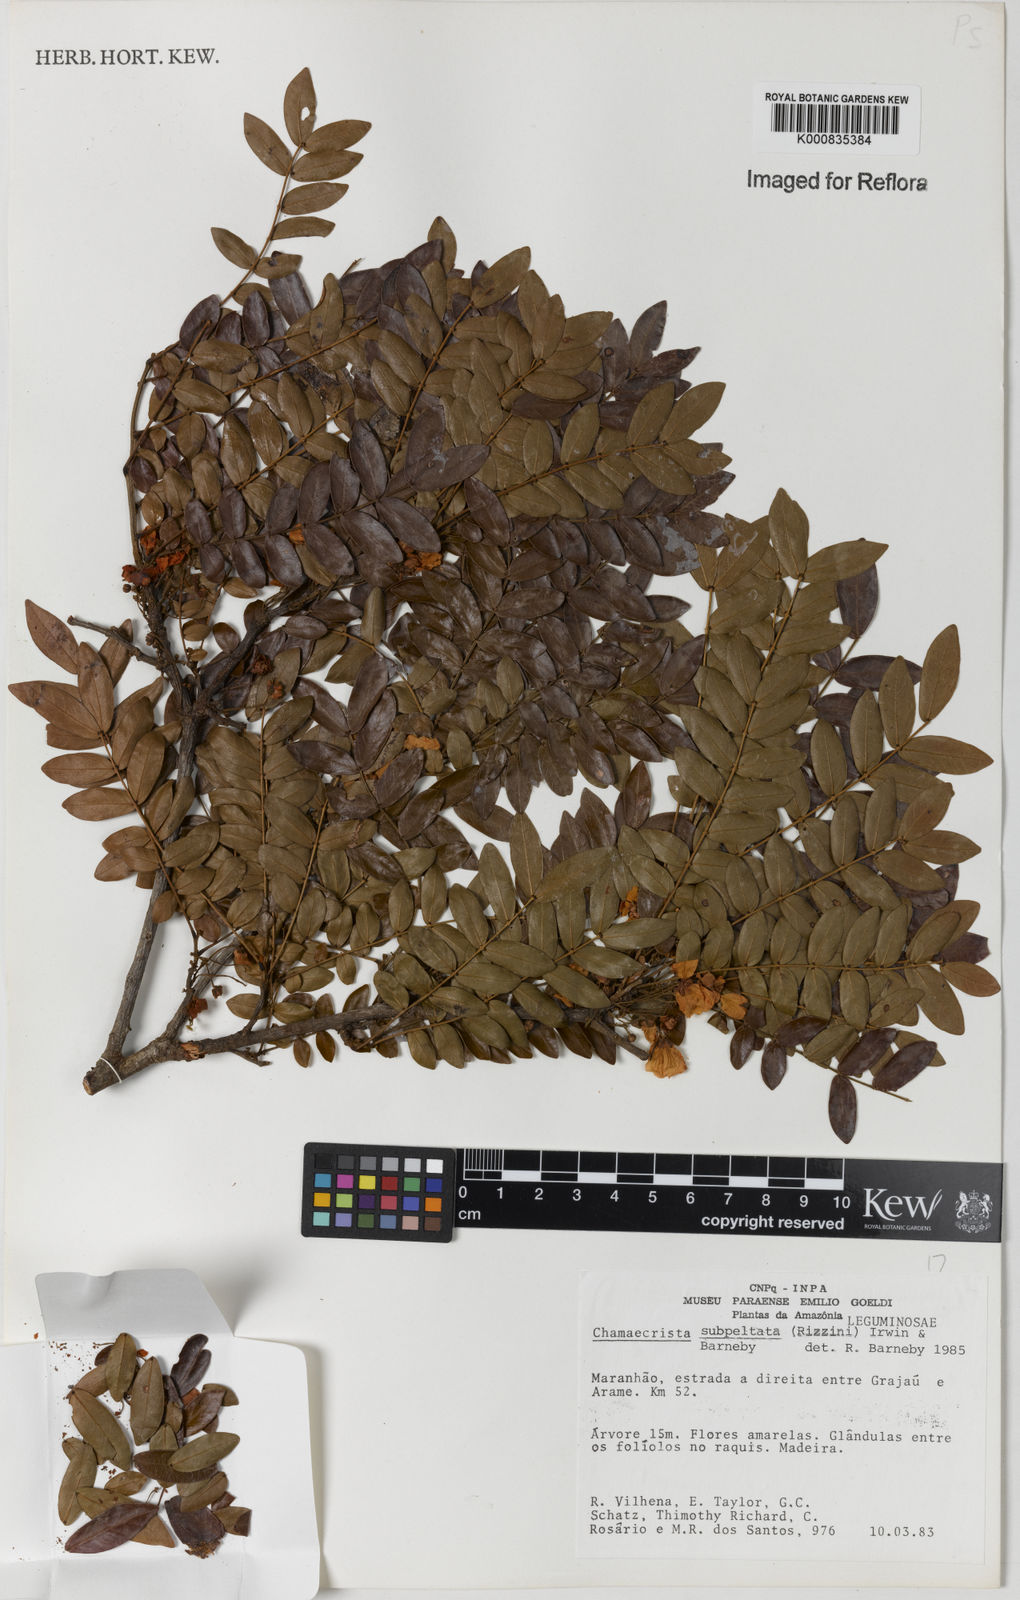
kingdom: Plantae
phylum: Tracheophyta
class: Magnoliopsida
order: Fabales
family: Fabaceae
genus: Chamaecrista
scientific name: Chamaecrista subpeltata
